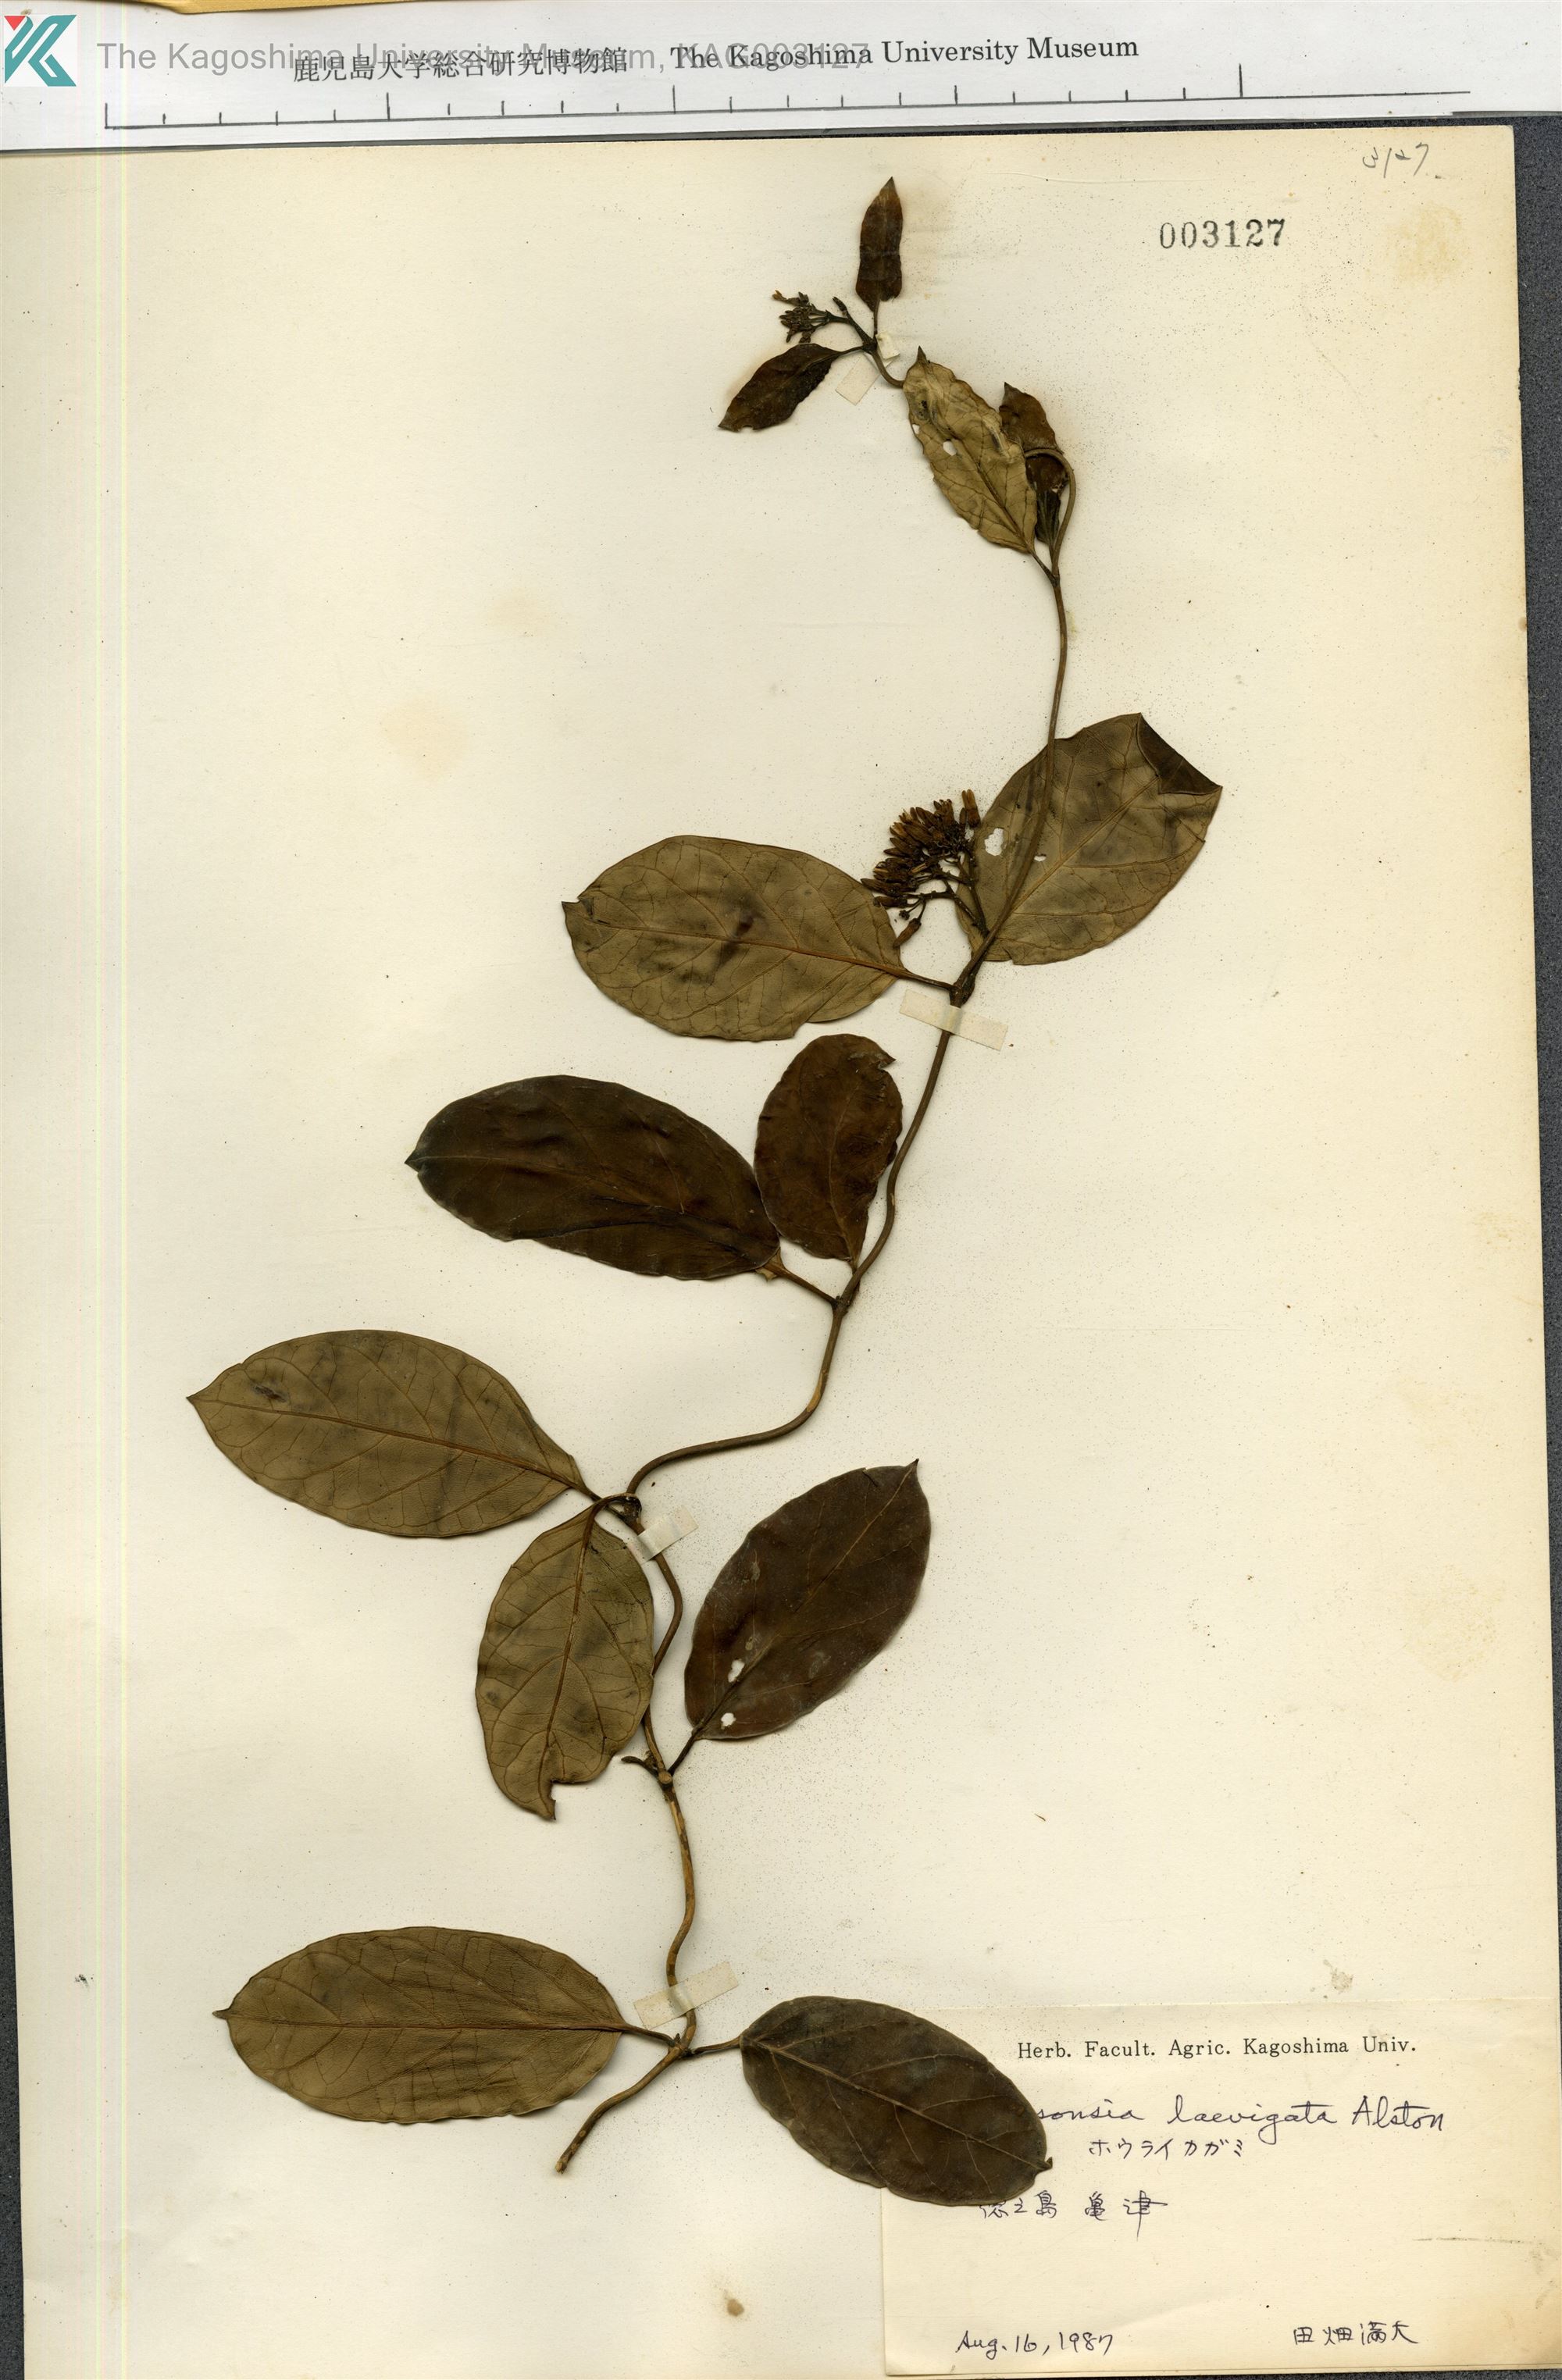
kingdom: Plantae
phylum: Tracheophyta
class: Magnoliopsida
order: Gentianales
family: Apocynaceae
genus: Parsonsia
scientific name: Parsonsia alboflavescens
